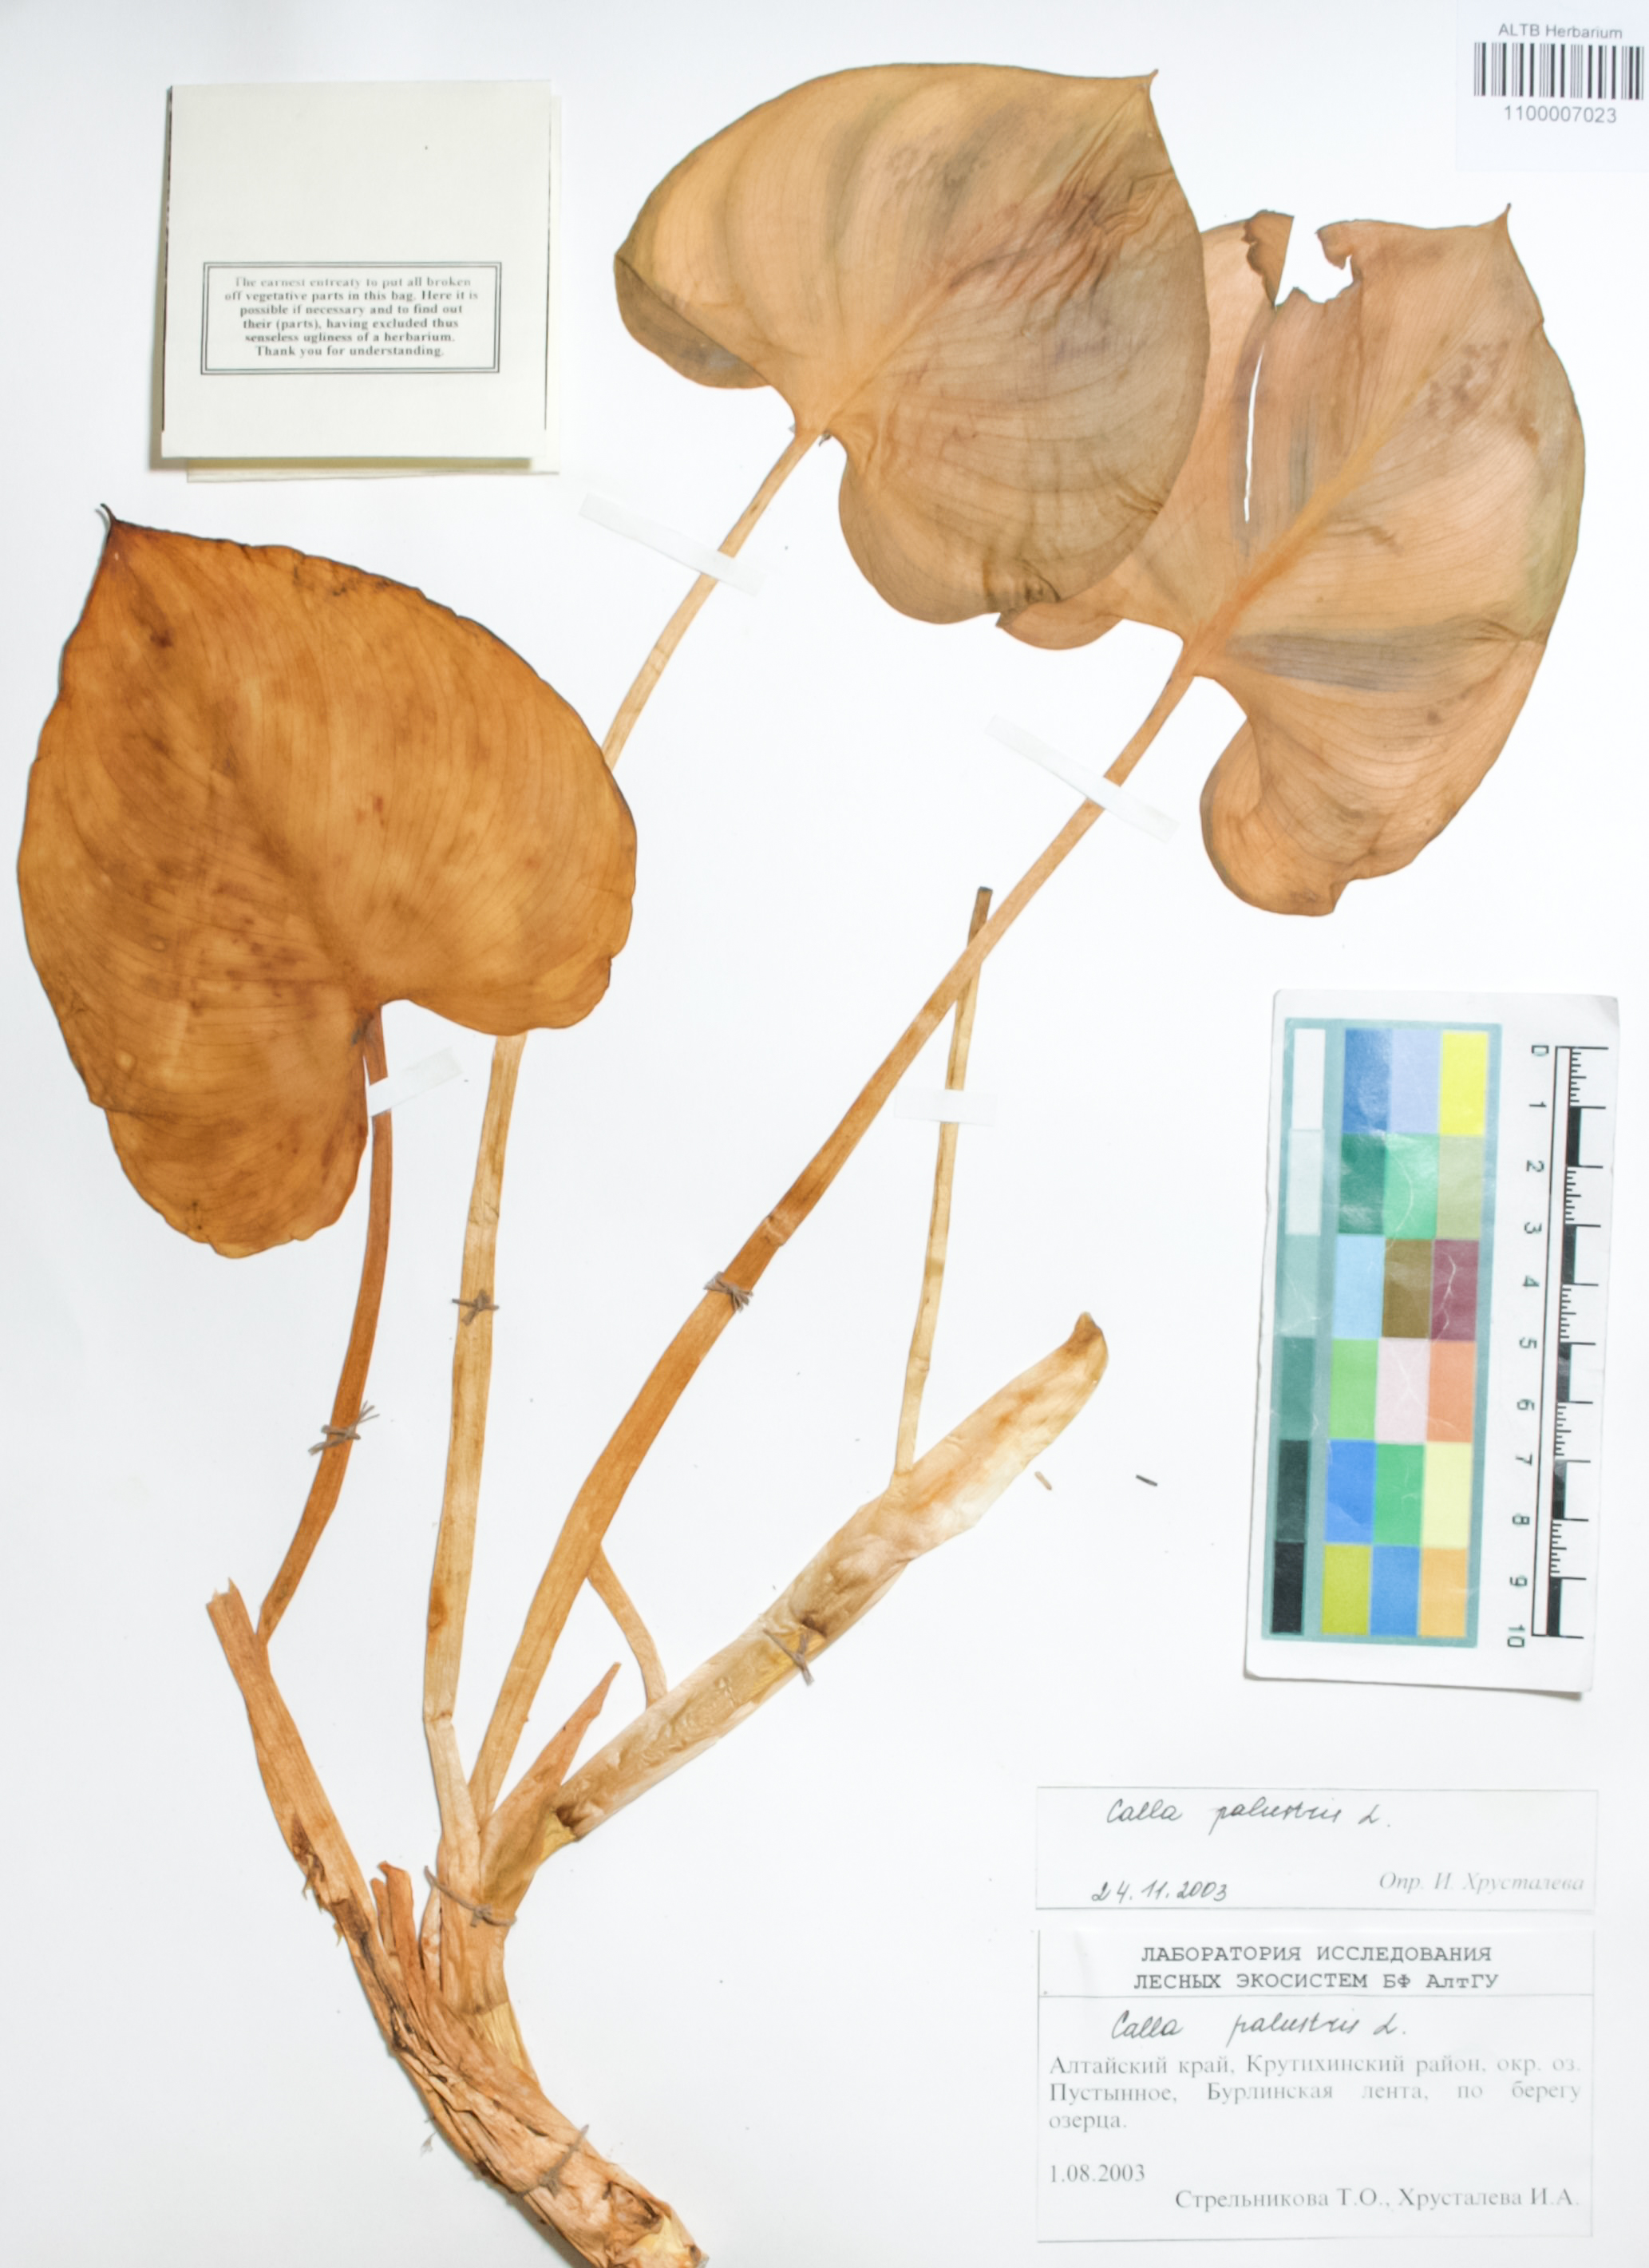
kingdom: Plantae
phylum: Tracheophyta
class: Liliopsida
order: Alismatales
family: Araceae
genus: Calla
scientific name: Calla palustris
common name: Bog arum
